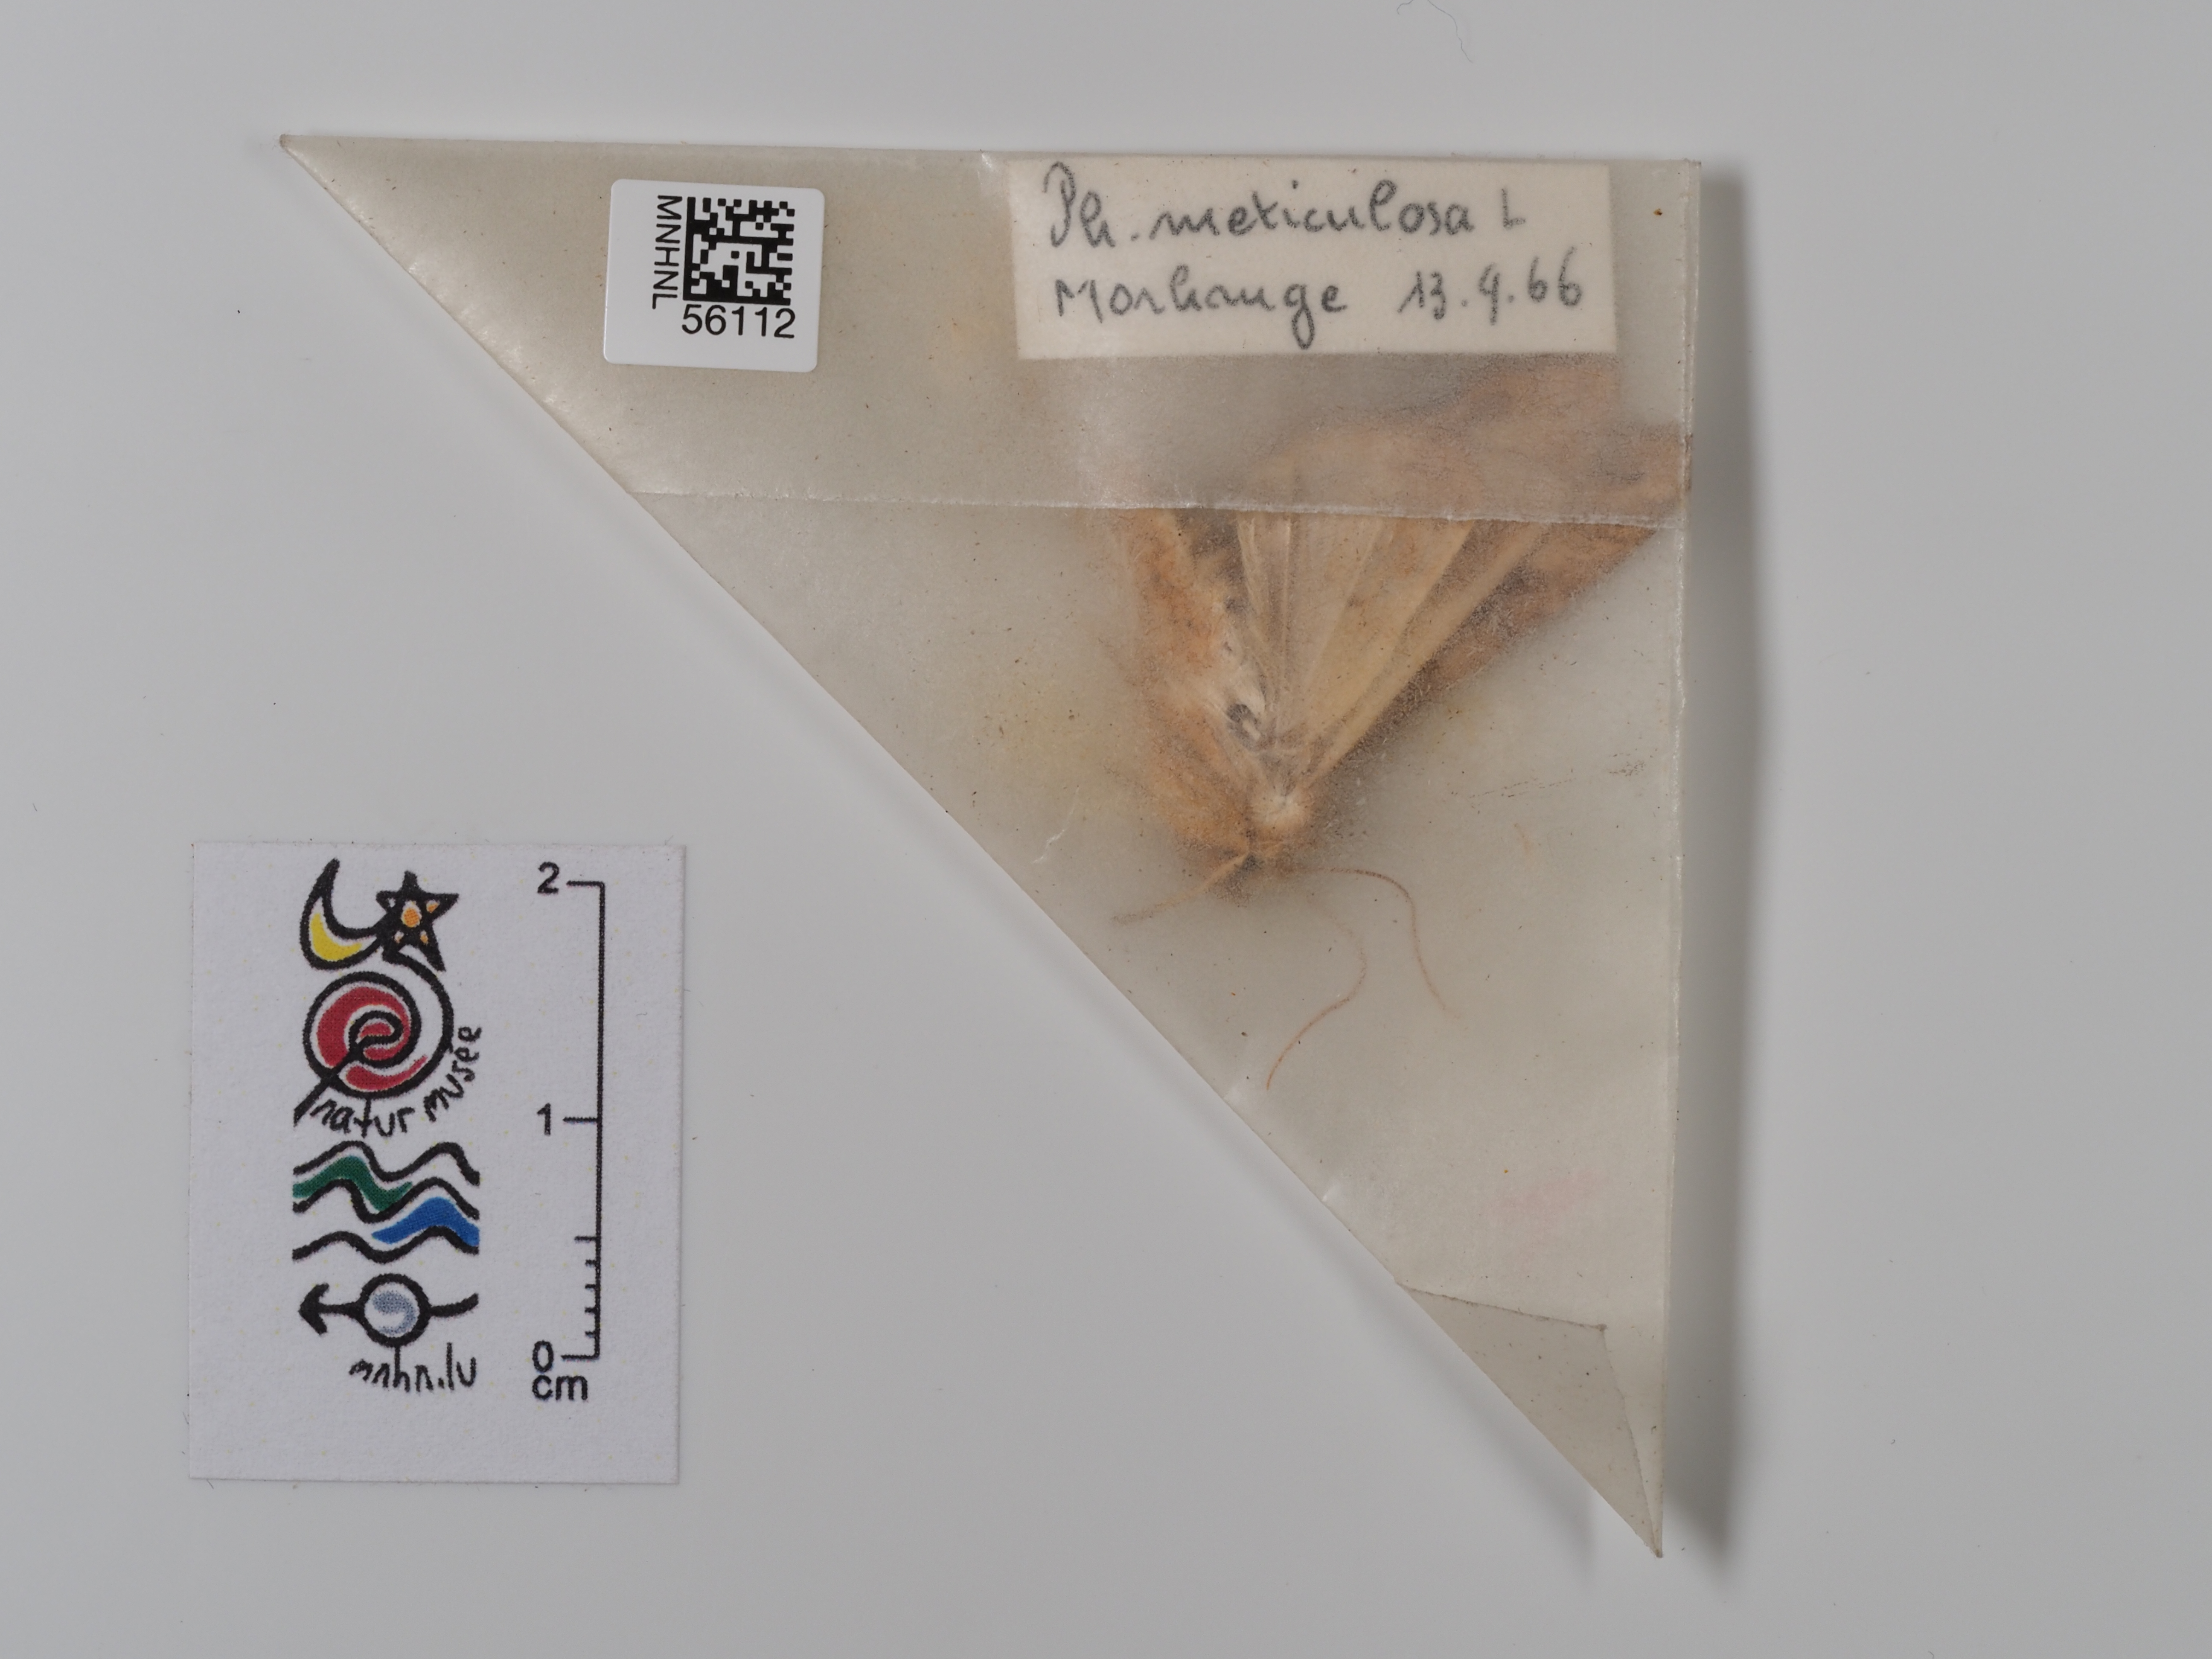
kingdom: Animalia
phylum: Arthropoda
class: Insecta
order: Lepidoptera
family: Noctuidae
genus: Phlogophora
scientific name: Phlogophora meticulosa
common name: Angle shades
